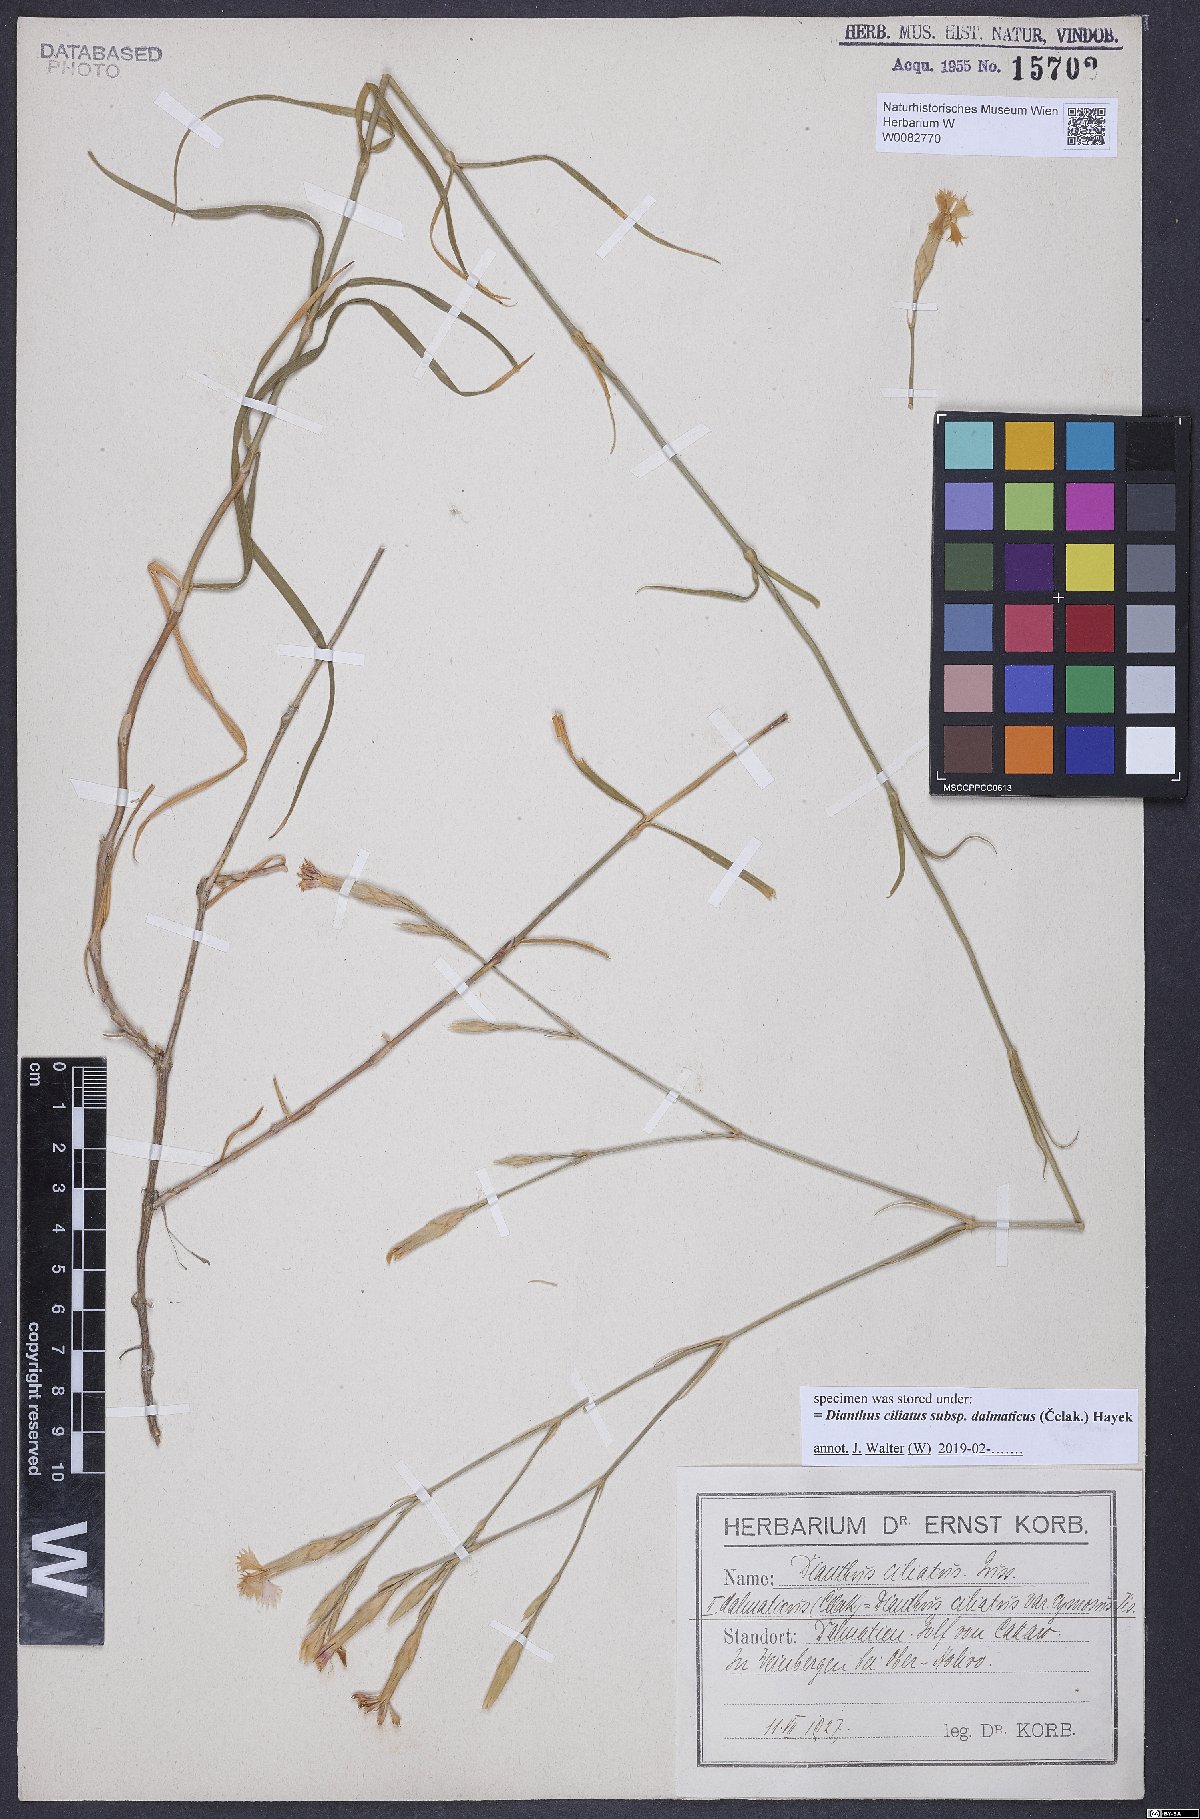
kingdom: Plantae
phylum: Tracheophyta
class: Magnoliopsida
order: Caryophyllales
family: Caryophyllaceae
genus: Dianthus
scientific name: Dianthus ciliatus
